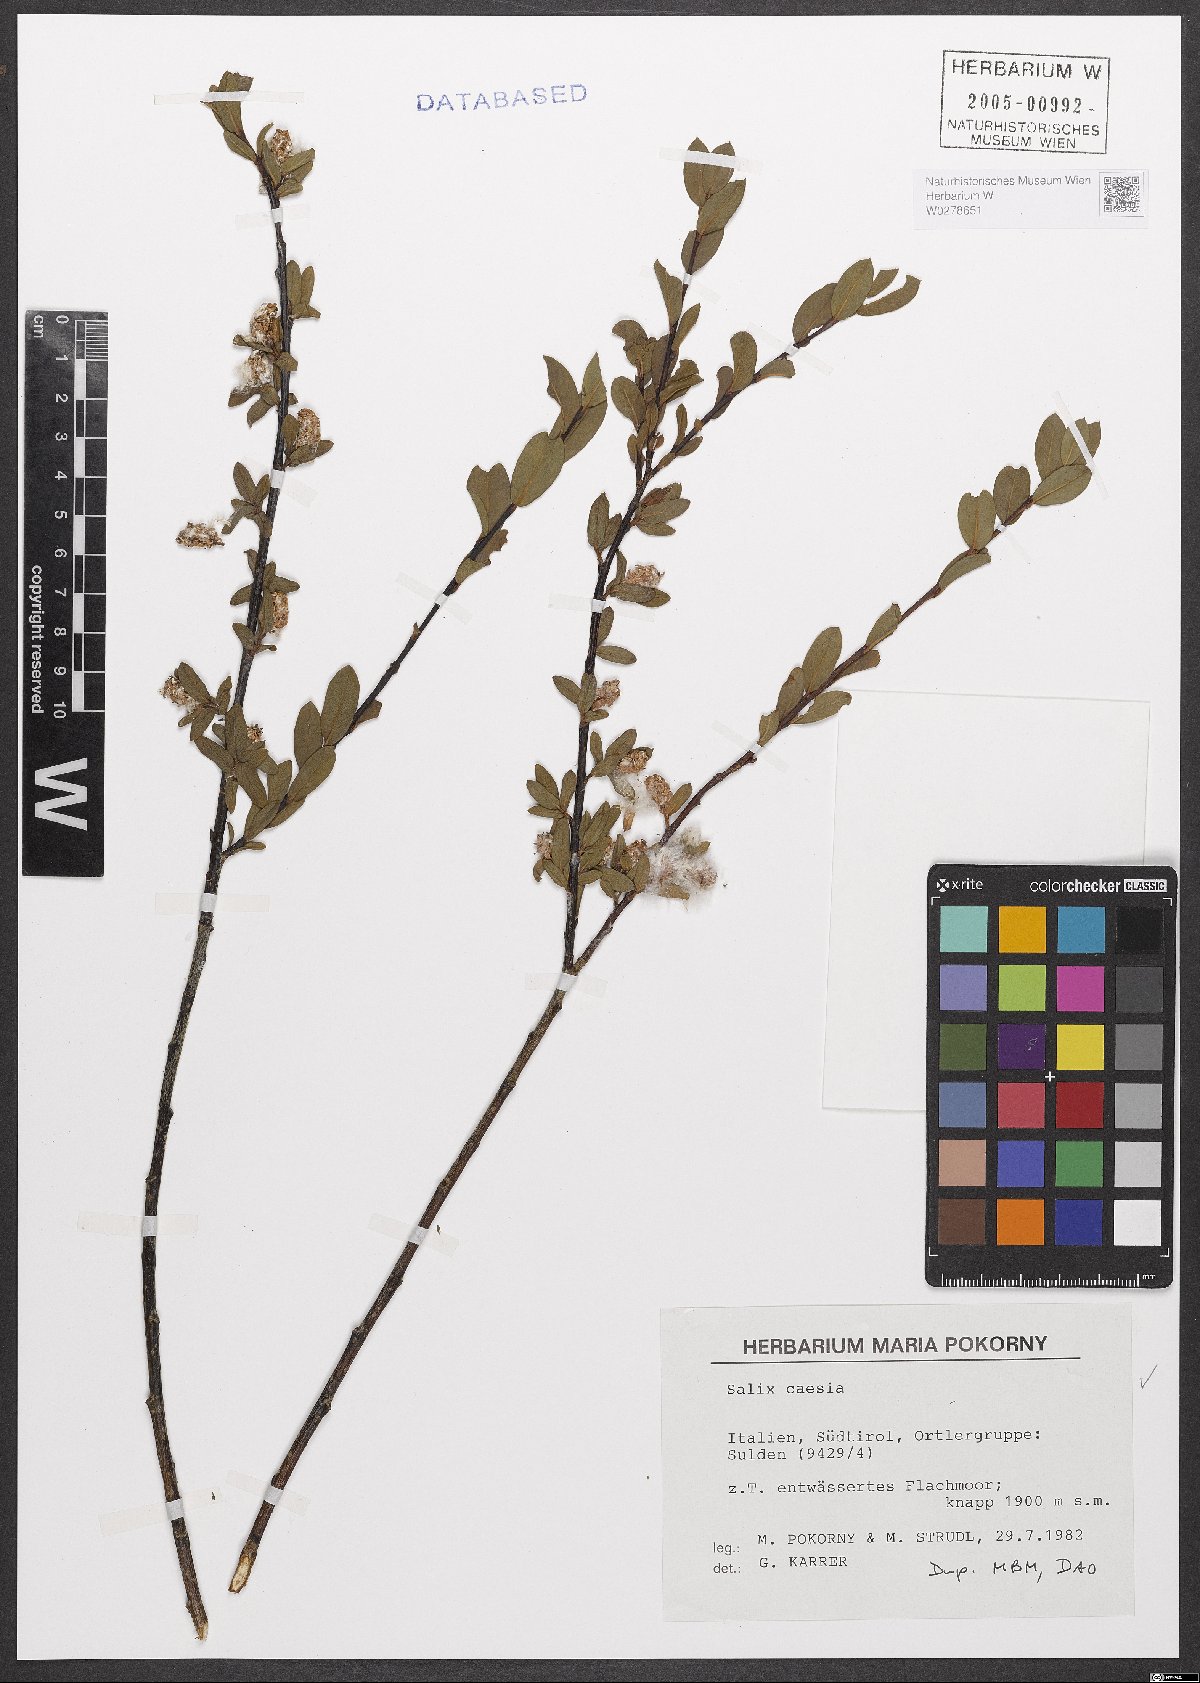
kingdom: Plantae
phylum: Tracheophyta
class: Magnoliopsida
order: Malpighiales
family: Salicaceae
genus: Salix
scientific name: Salix caesia
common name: Blue willow
